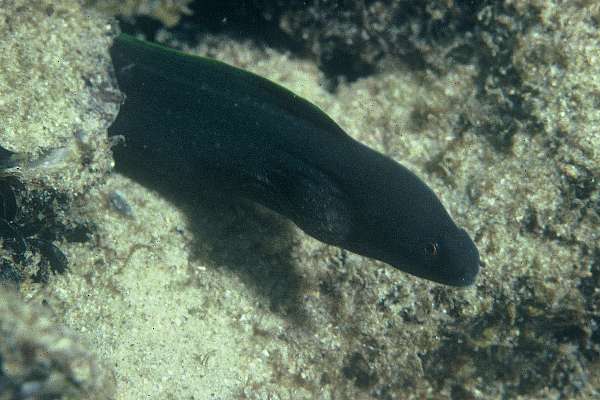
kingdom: Animalia
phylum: Chordata
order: Anguilliformes
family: Muraenidae
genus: Gymnothorax
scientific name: Gymnothorax flavimarginatus
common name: Yellow-edged moray
